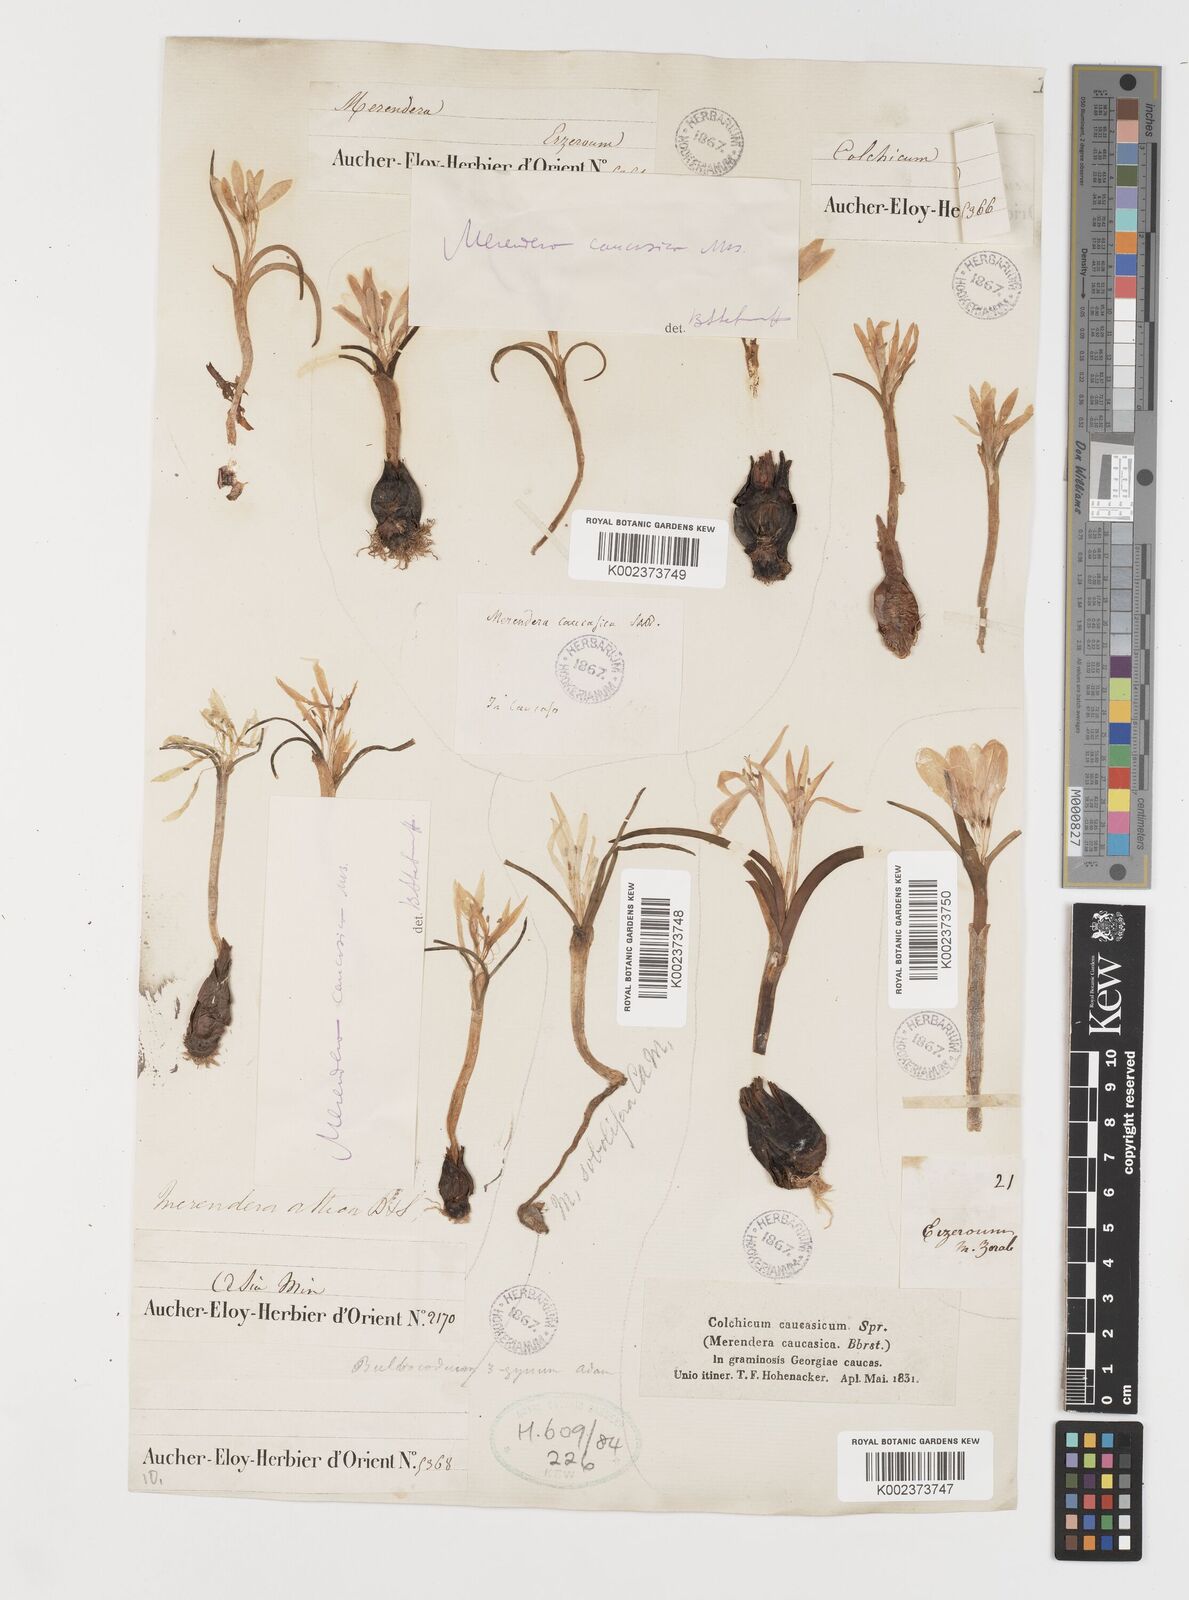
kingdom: Plantae
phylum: Tracheophyta
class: Liliopsida
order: Liliales
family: Colchicaceae
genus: Colchicum
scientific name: Colchicum atticum
